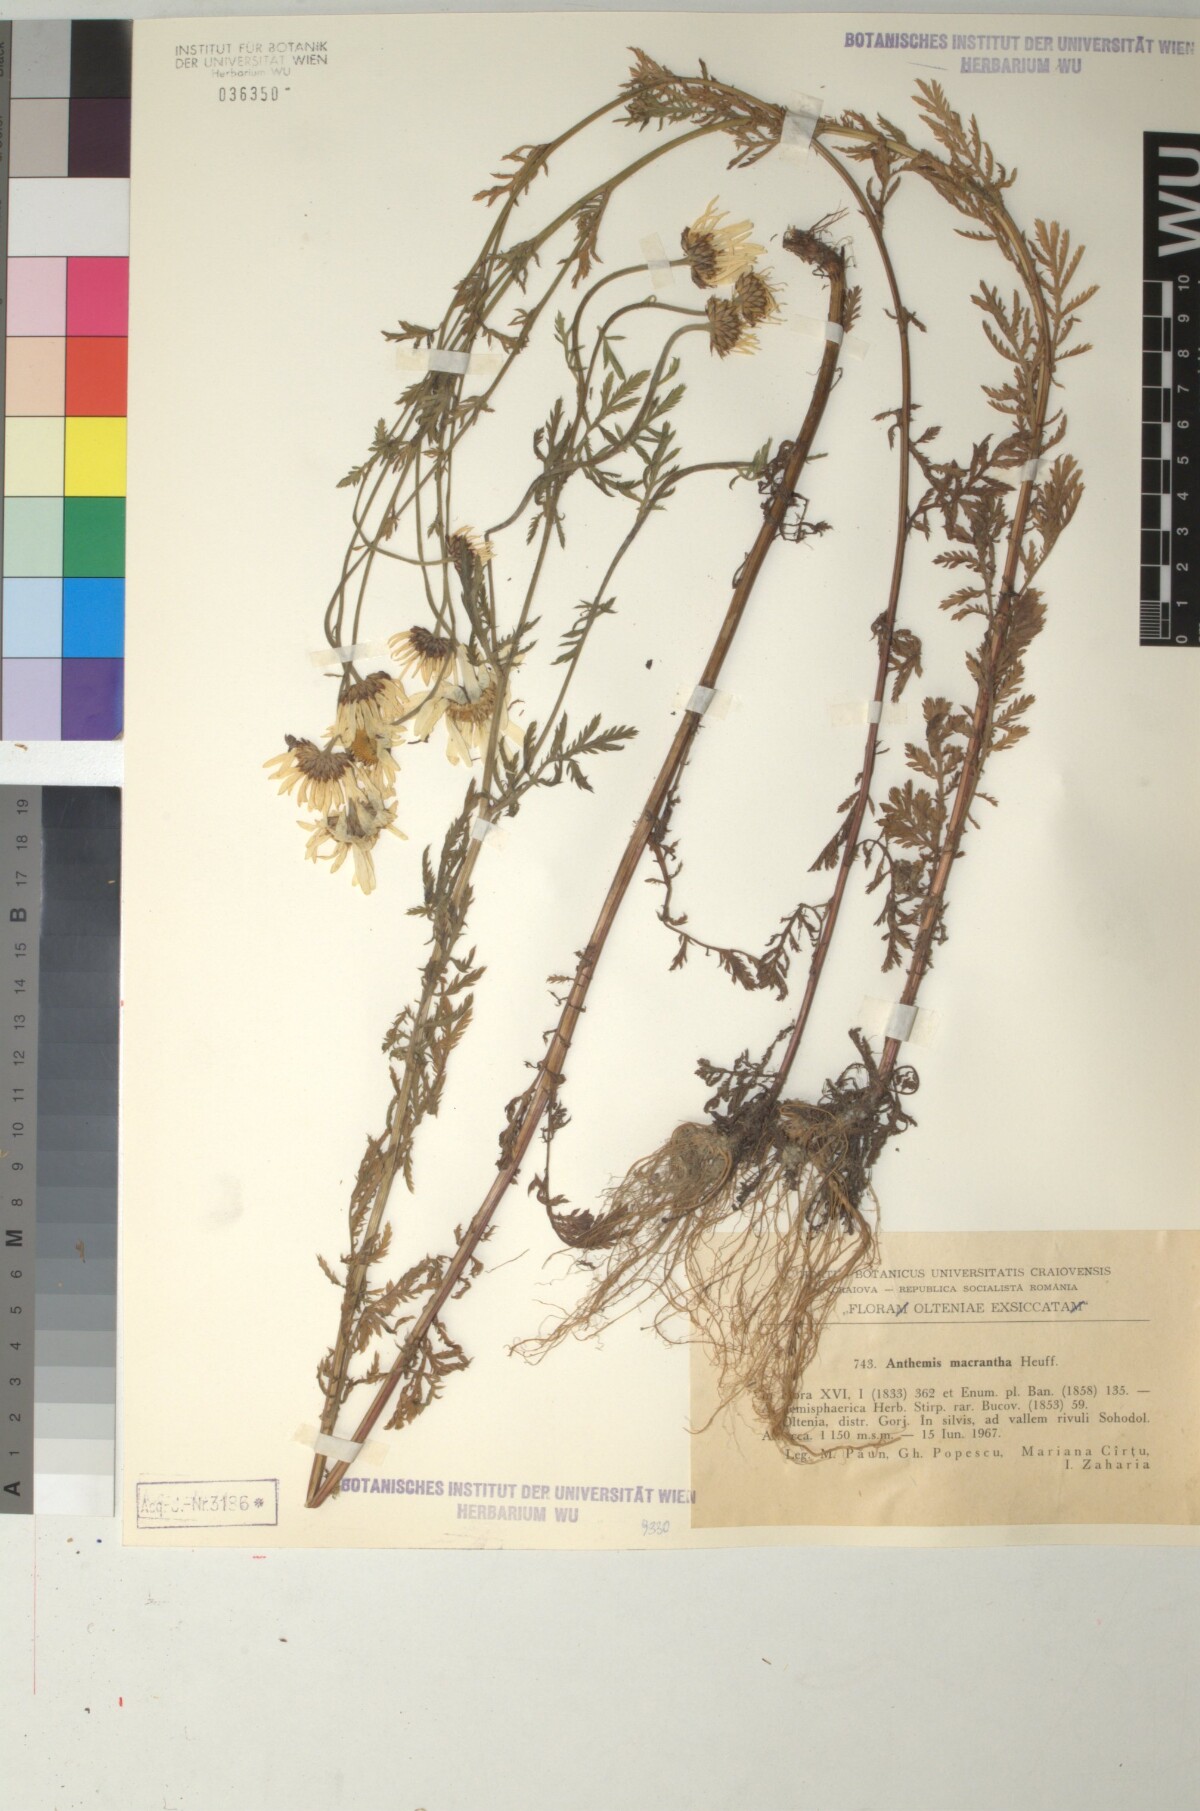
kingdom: Plantae
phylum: Tracheophyta
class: Magnoliopsida
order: Asterales
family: Asteraceae
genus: Cota
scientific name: Cota macrantha
